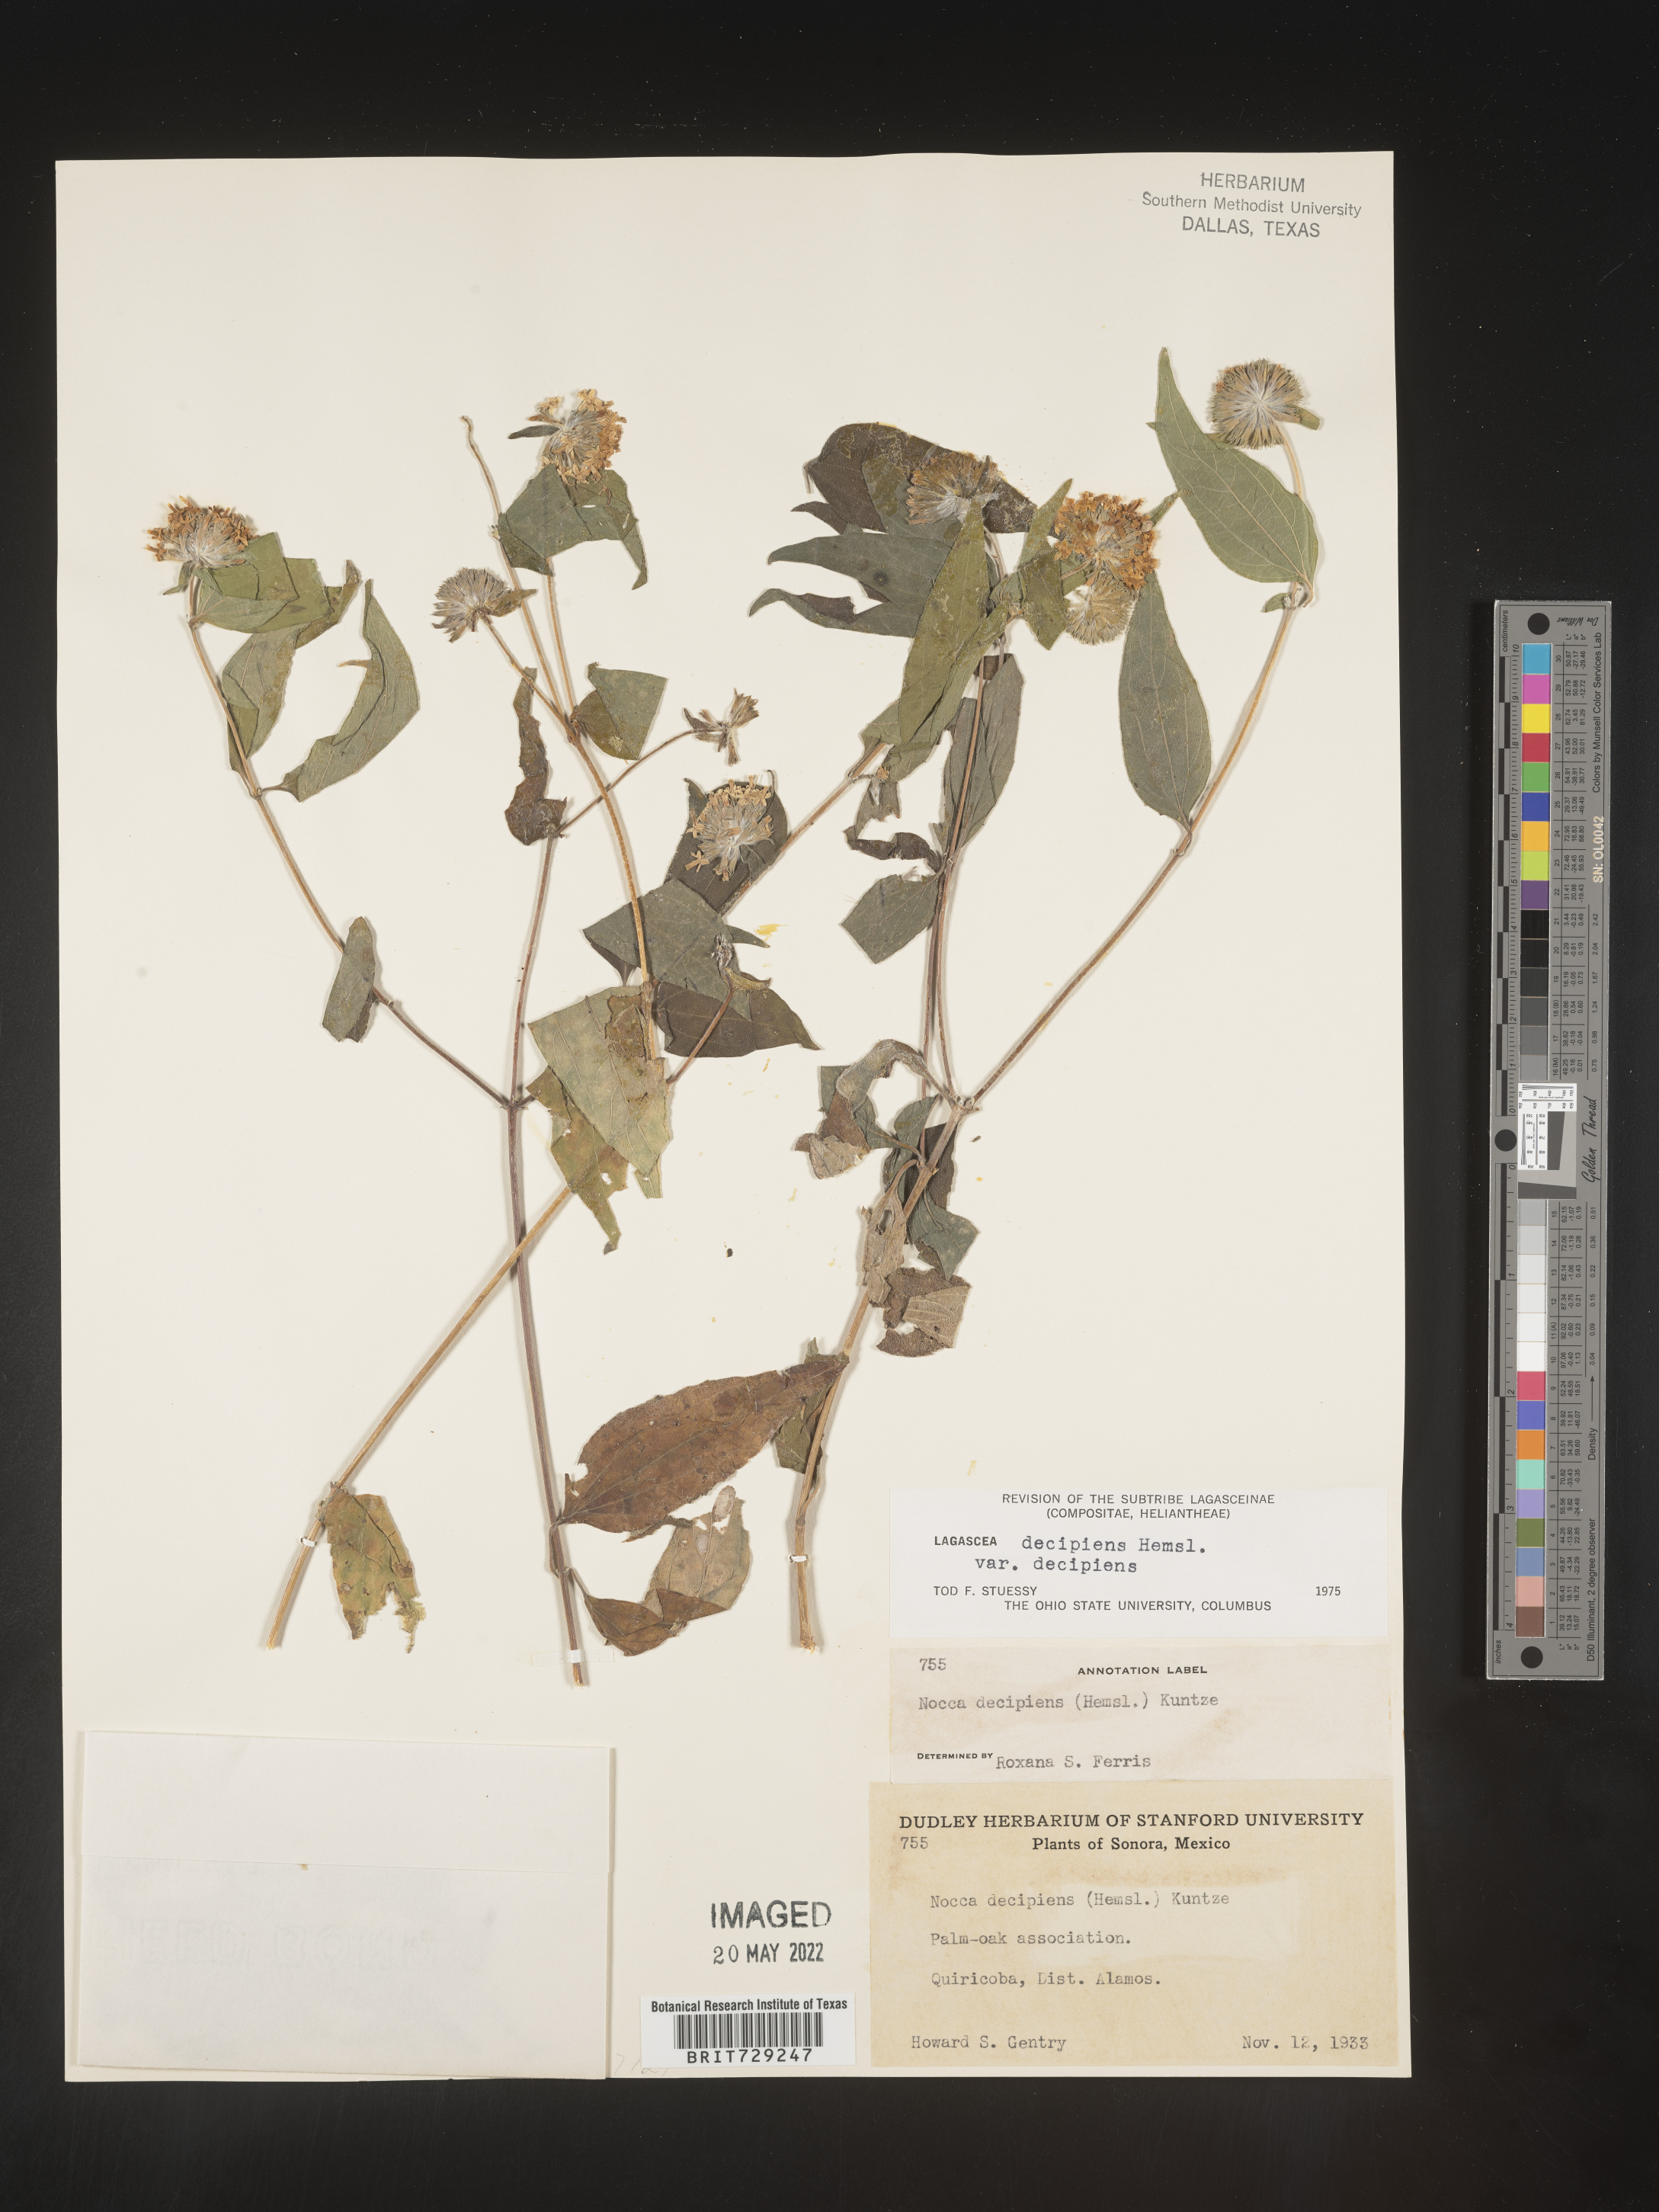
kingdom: Plantae
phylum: Tracheophyta
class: Magnoliopsida
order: Asterales
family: Asteraceae
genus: Lagascea
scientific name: Lagascea
